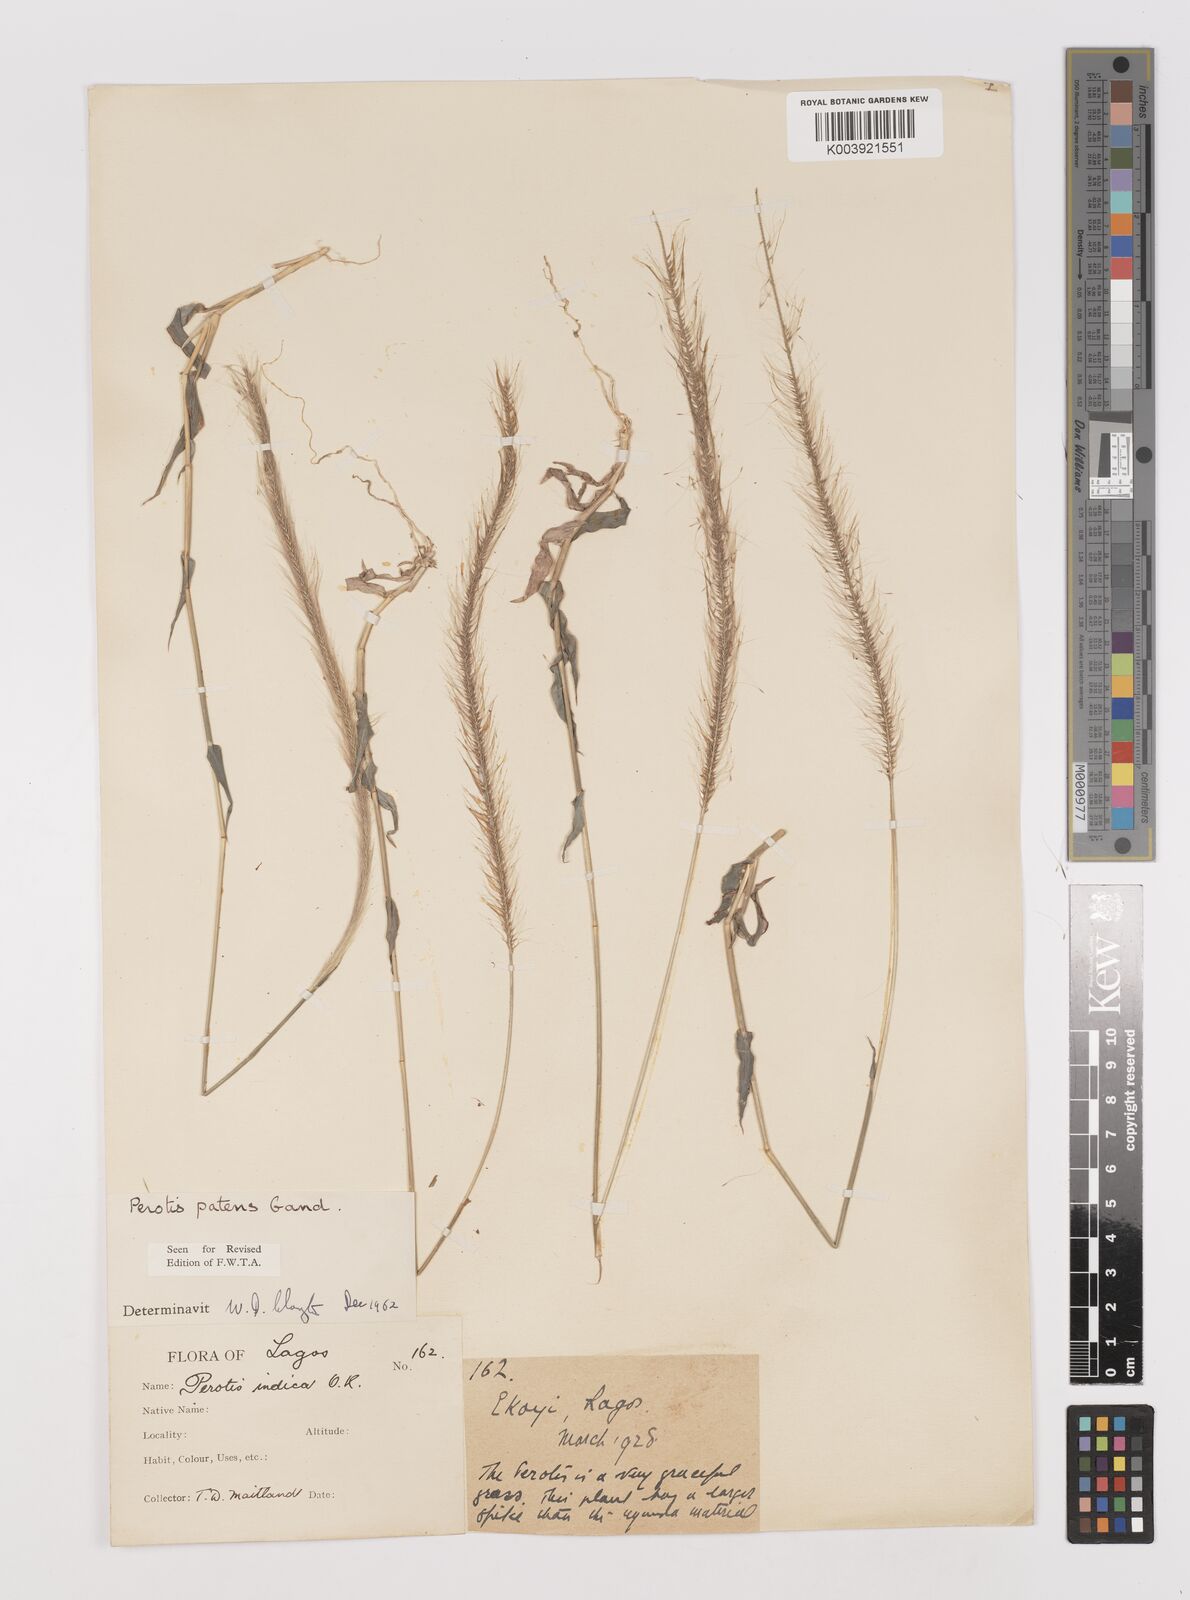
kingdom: Plantae
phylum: Tracheophyta
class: Liliopsida
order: Poales
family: Poaceae
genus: Perotis
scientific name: Perotis patens
